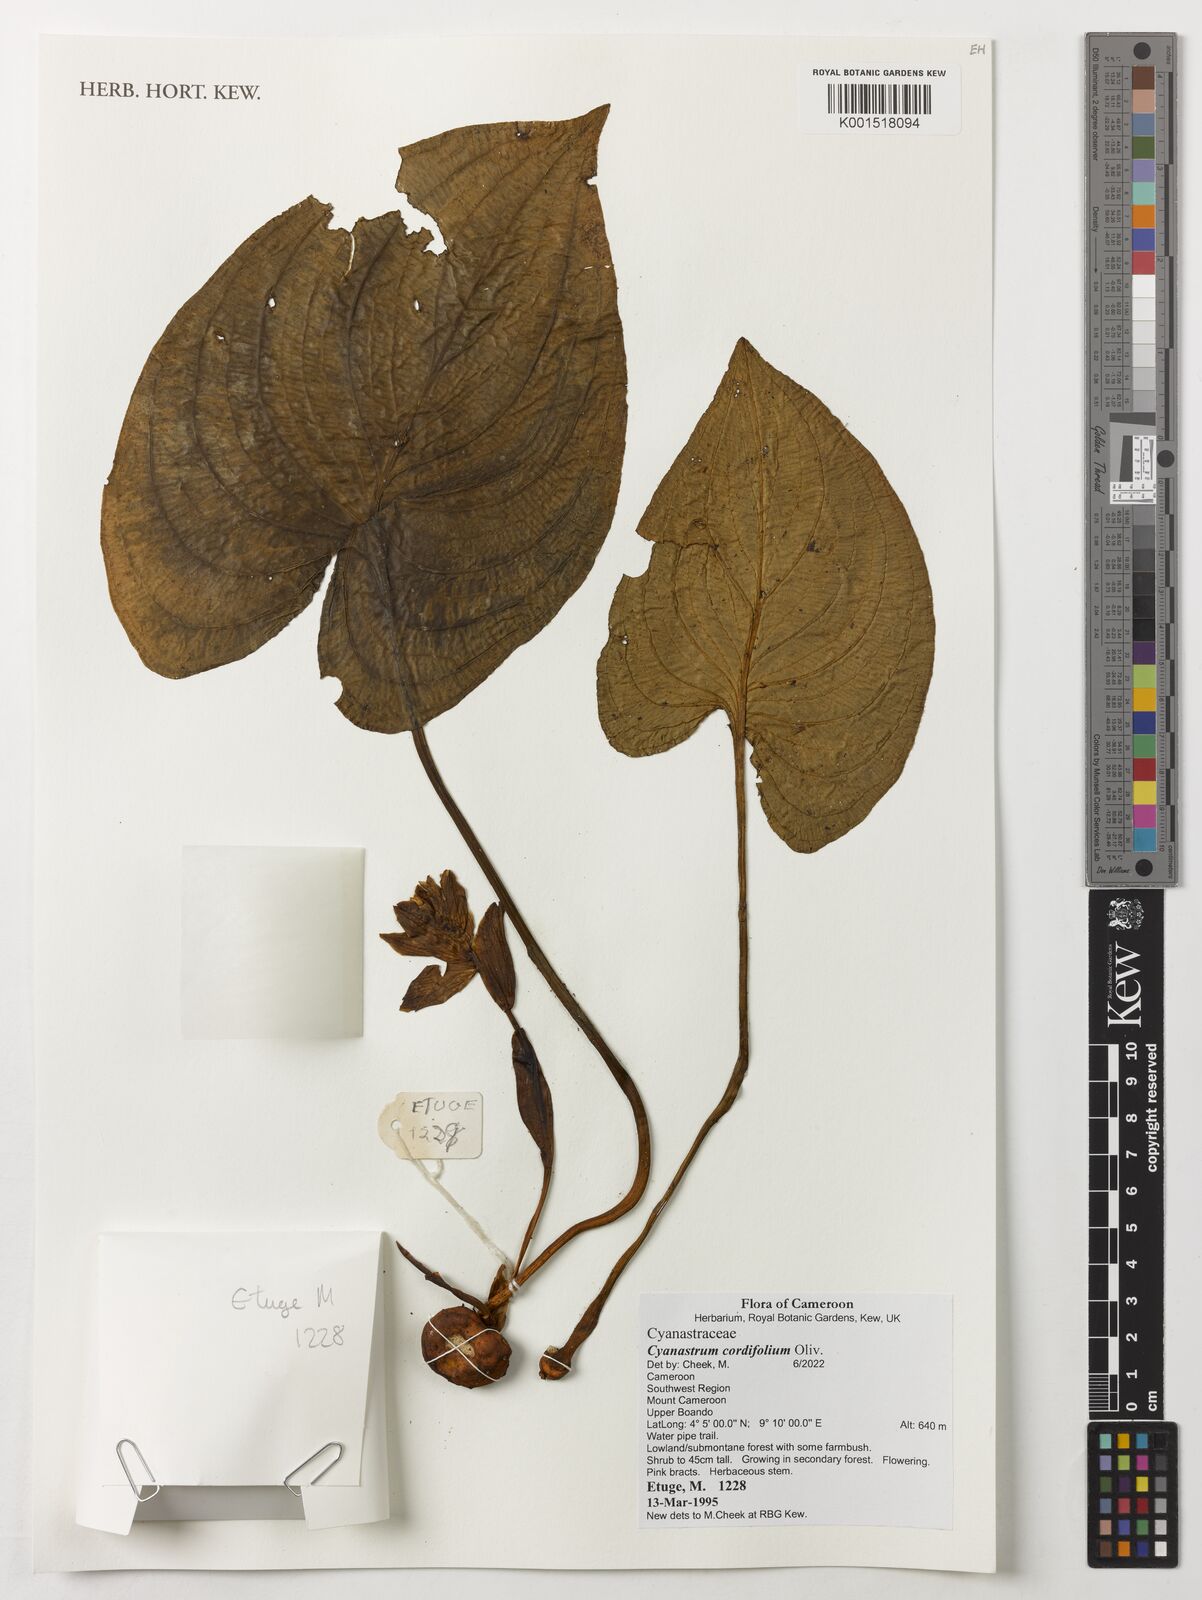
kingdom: Plantae
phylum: Tracheophyta
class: Liliopsida
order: Asparagales
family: Tecophilaeaceae
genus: Cyanastrum
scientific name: Cyanastrum cordifolium
